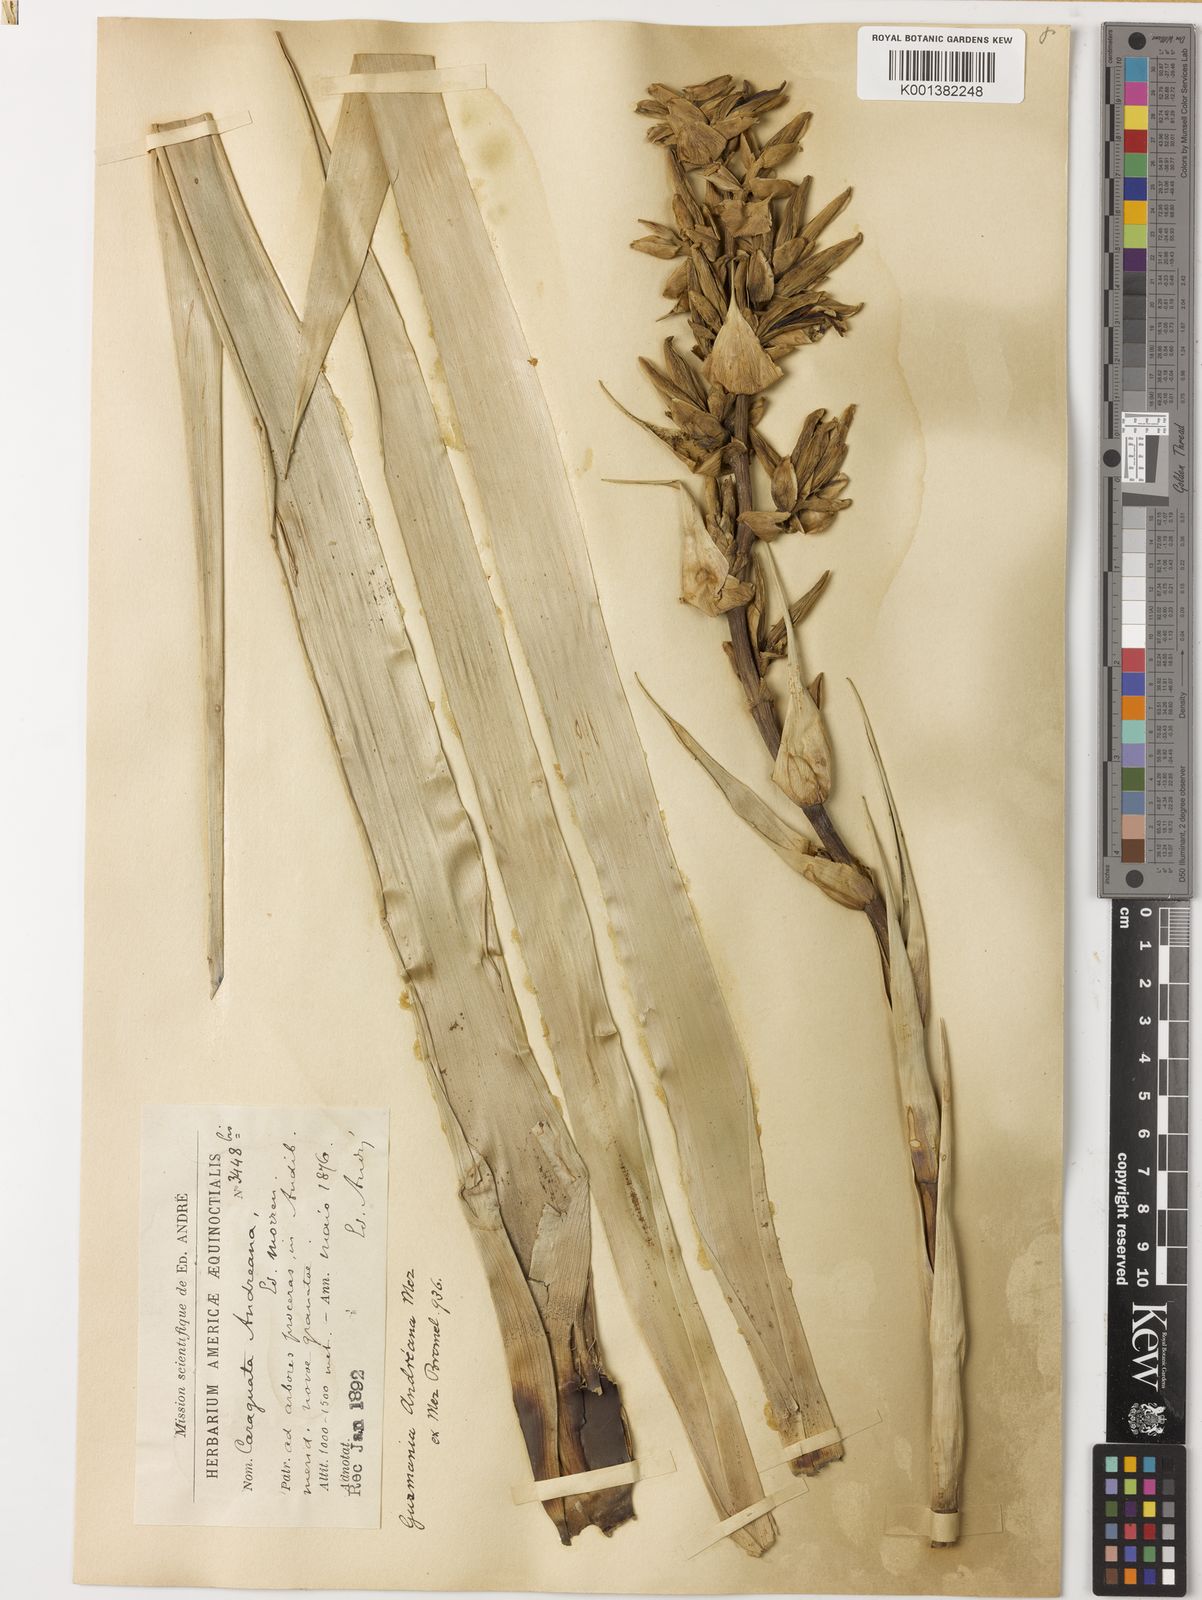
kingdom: Plantae
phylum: Tracheophyta
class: Liliopsida
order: Poales
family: Bromeliaceae
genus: Guzmania
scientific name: Guzmania
